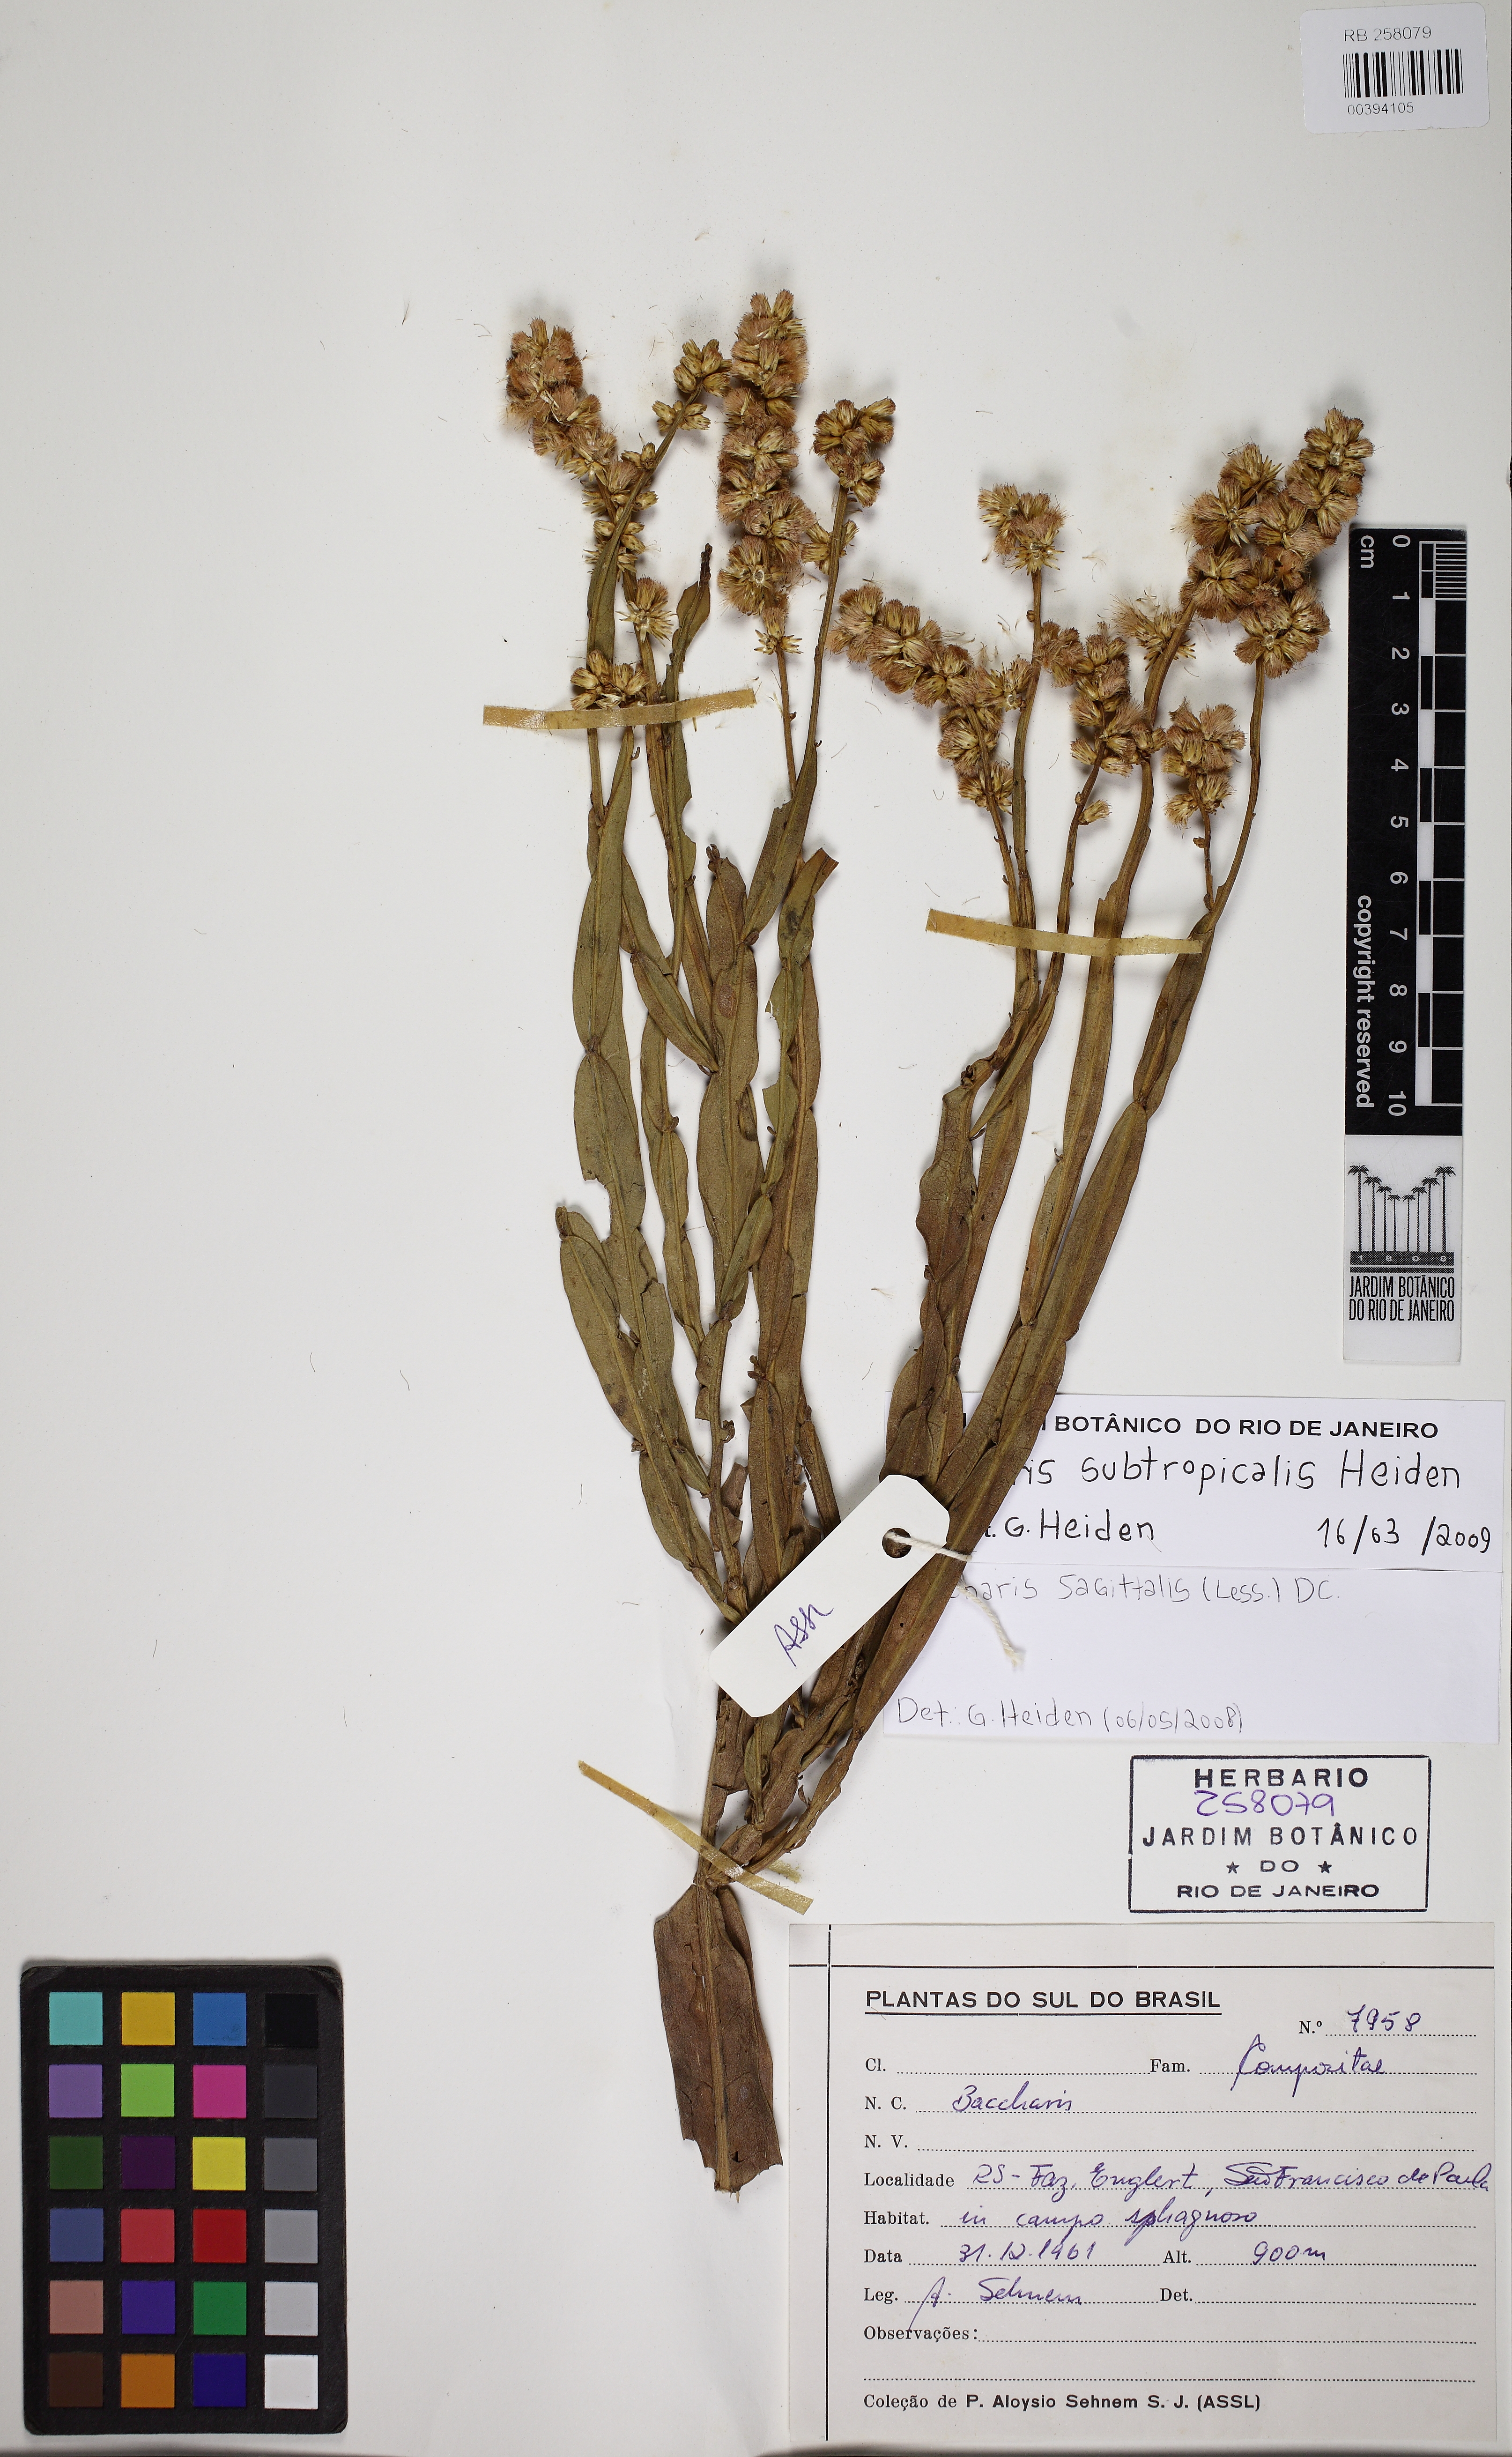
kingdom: Plantae
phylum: Tracheophyta
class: Magnoliopsida
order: Asterales
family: Asteraceae
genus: Baccharis
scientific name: Baccharis subtropicalis
